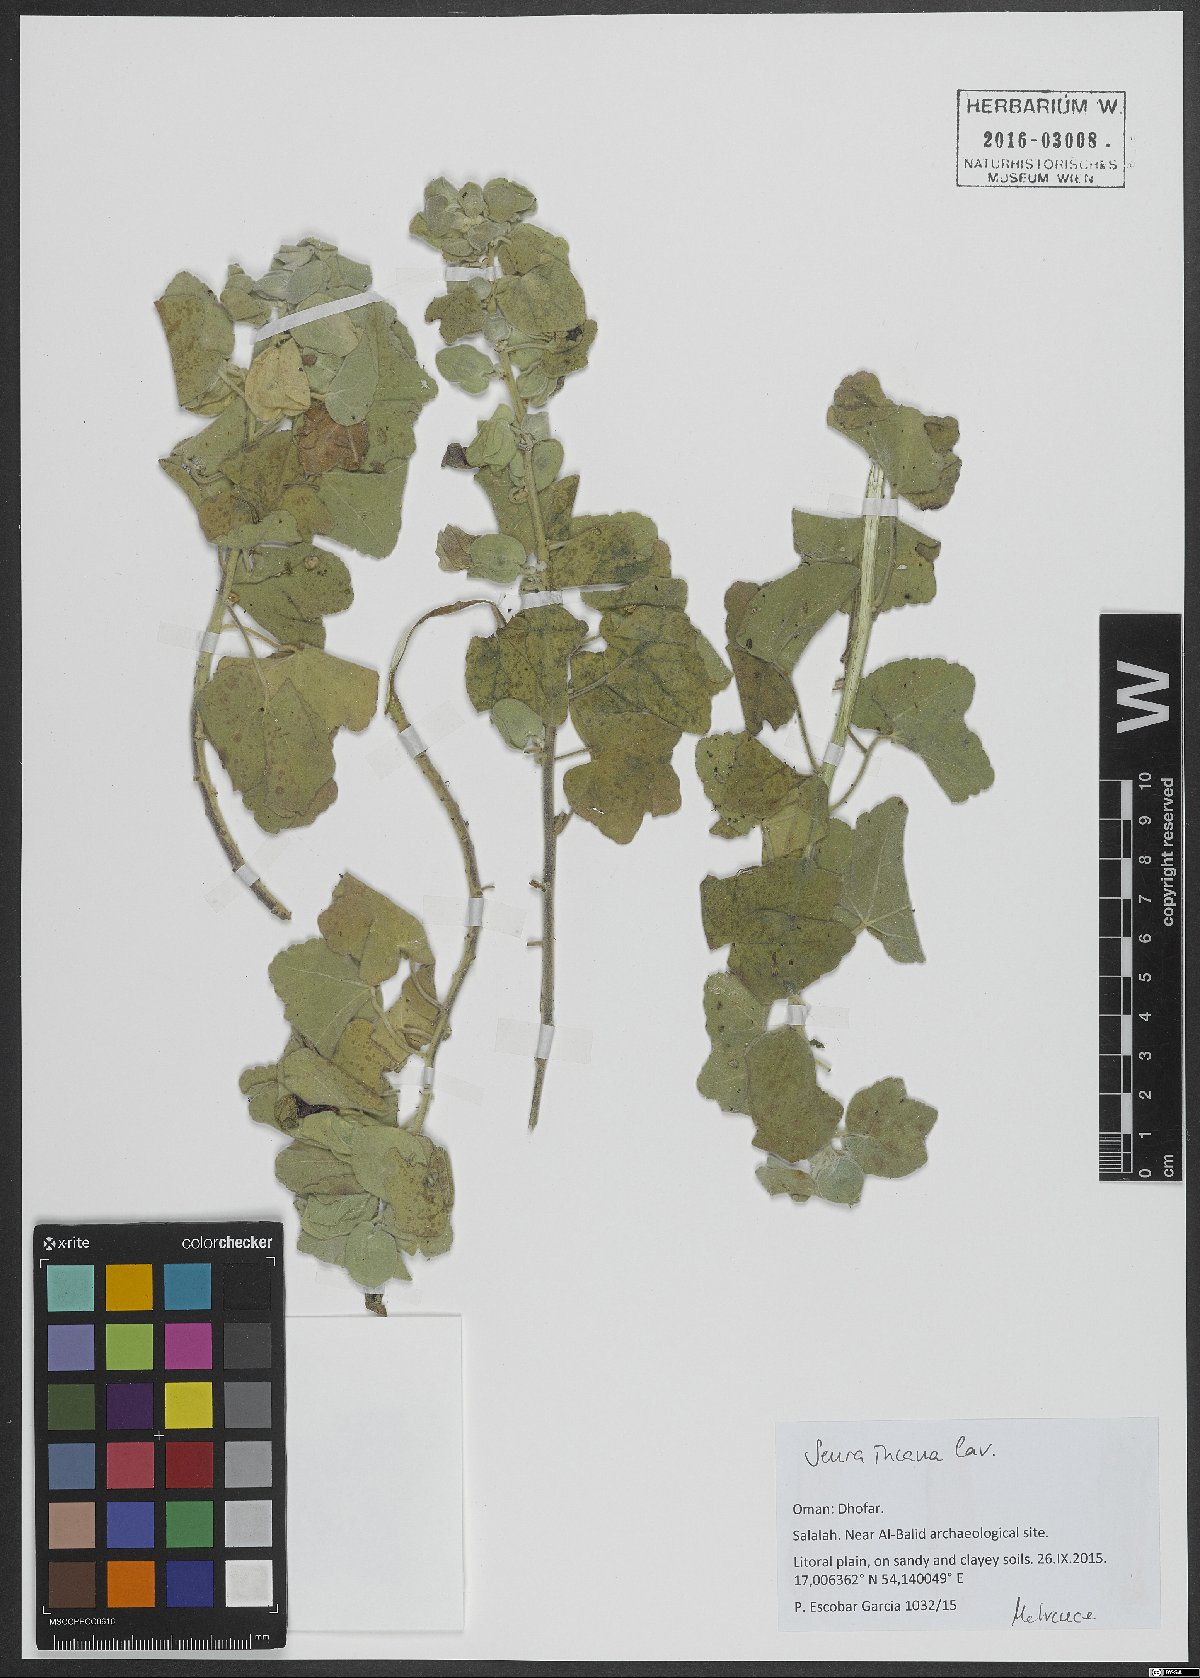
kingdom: Plantae
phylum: Tracheophyta
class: Magnoliopsida
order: Malvales
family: Malvaceae
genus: Senra
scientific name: Senra incana
